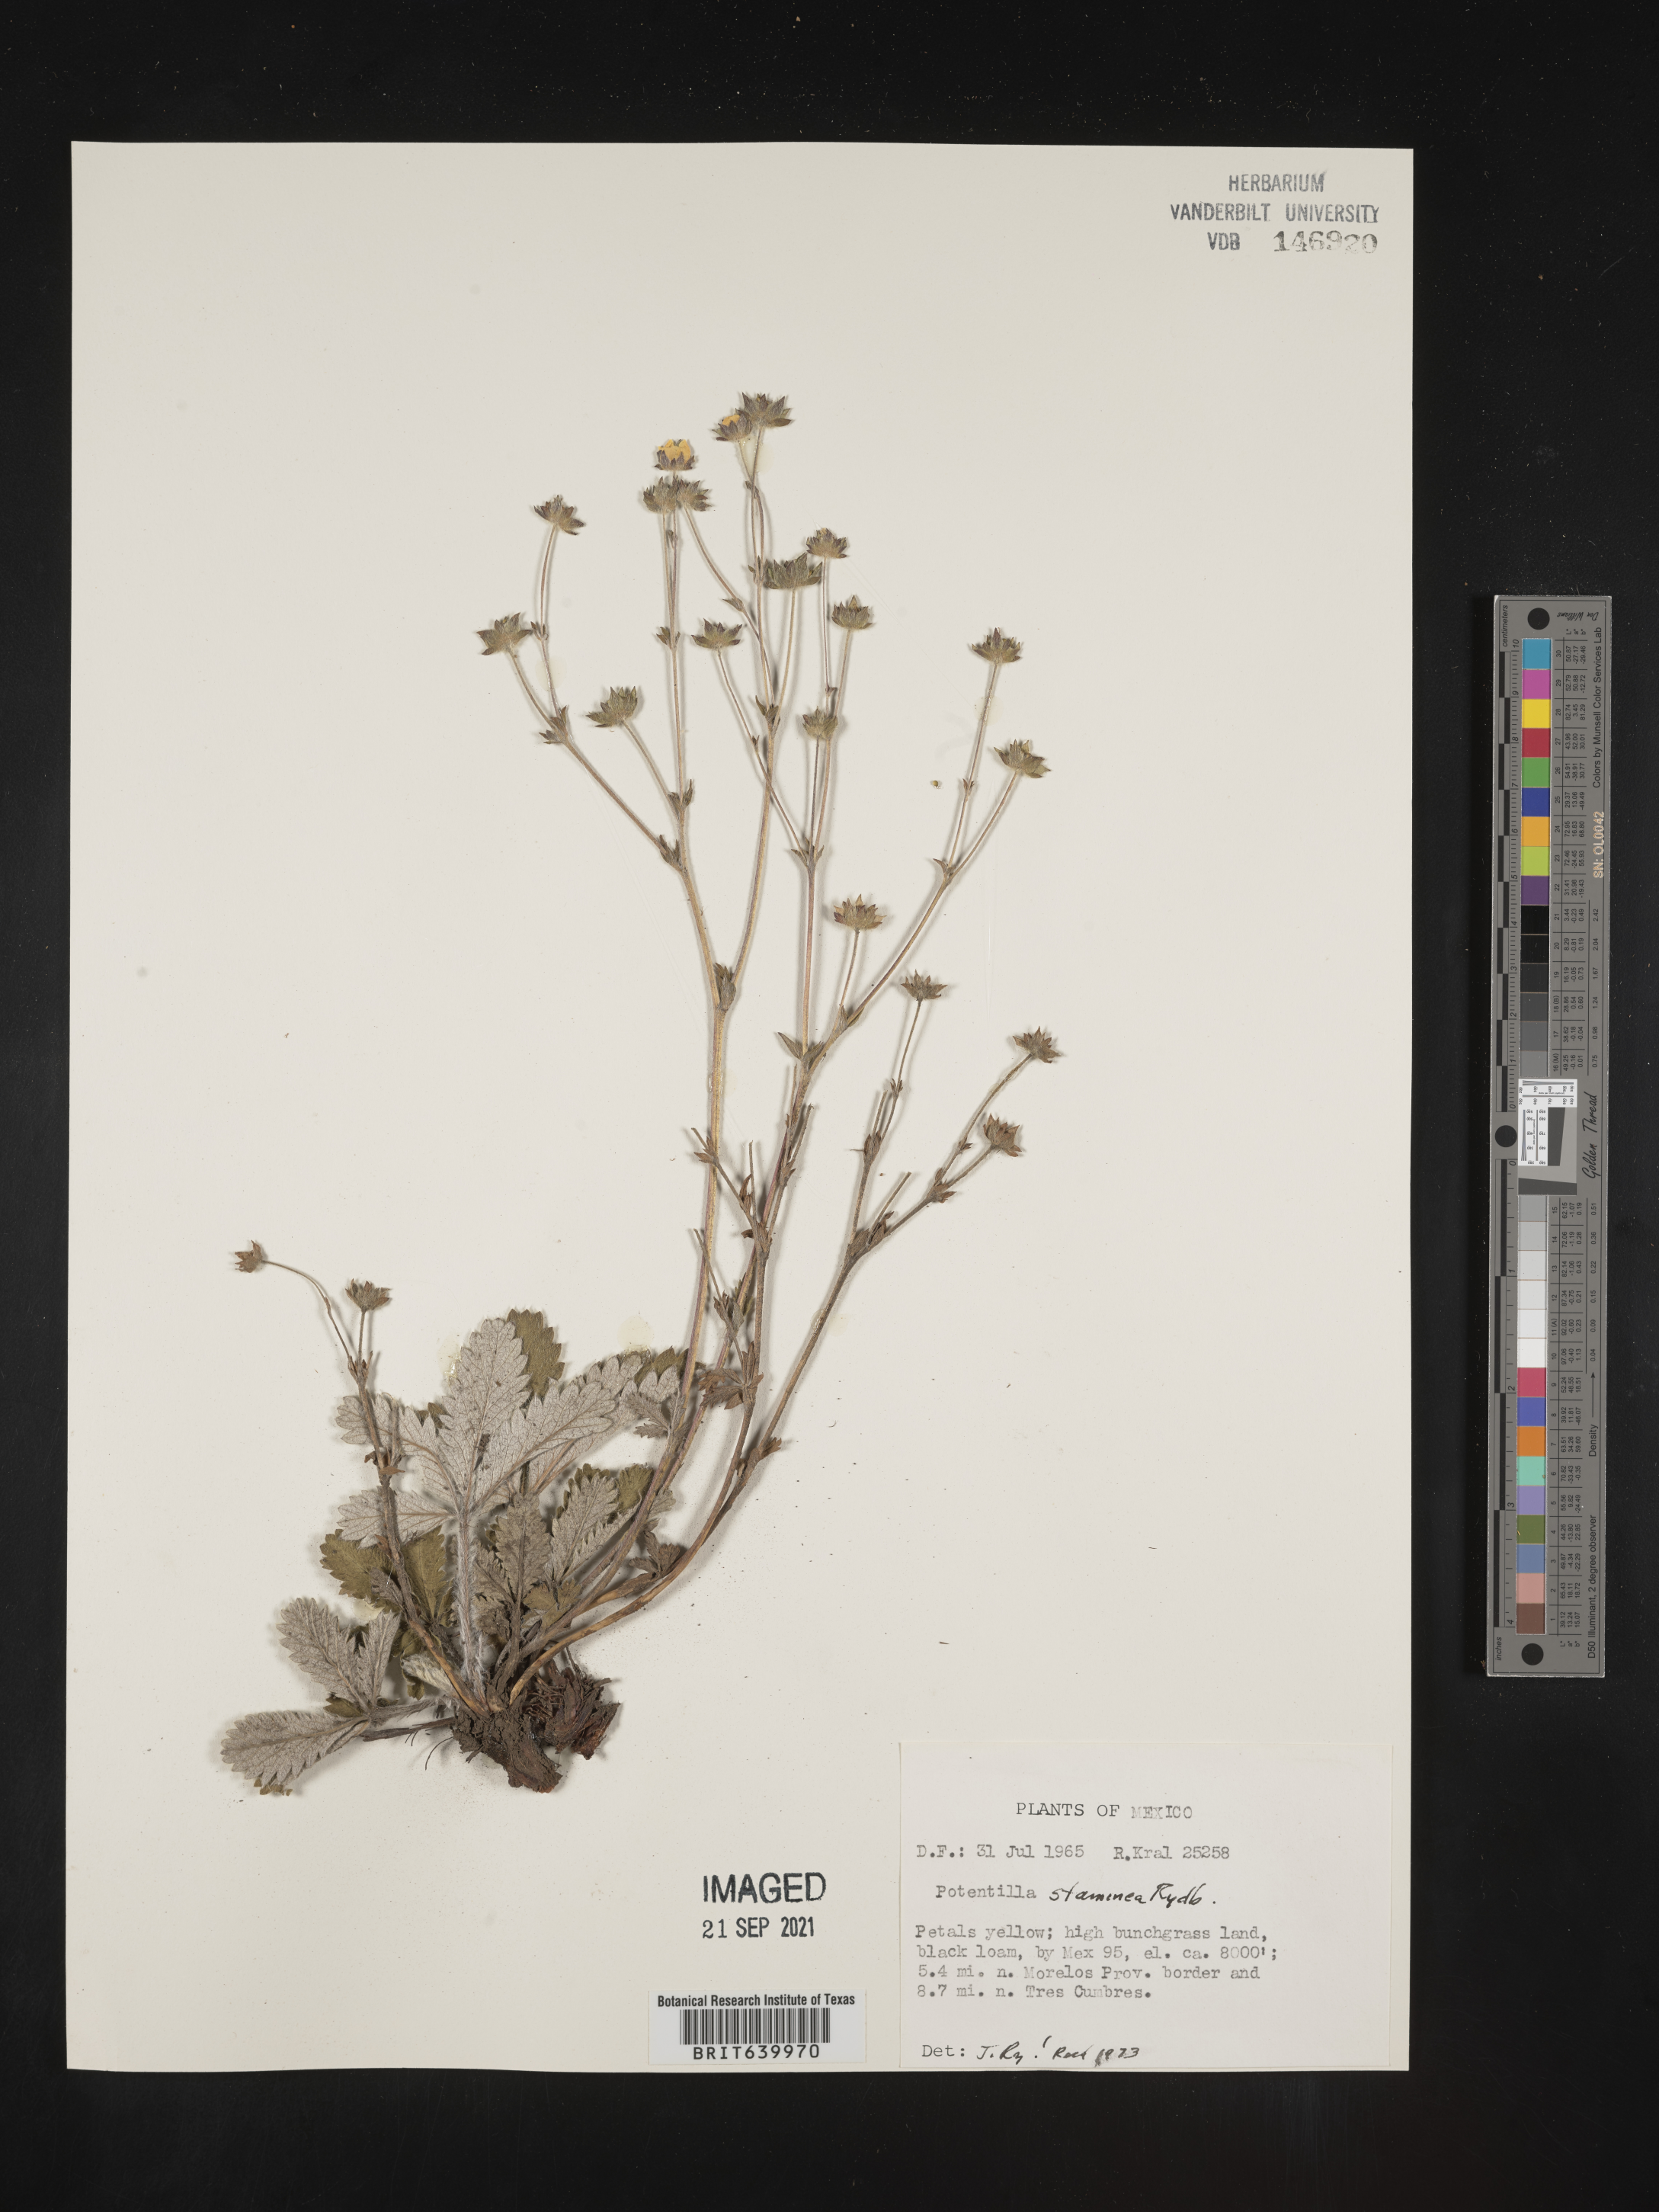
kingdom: Plantae
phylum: Tracheophyta
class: Magnoliopsida
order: Rosales
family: Rosaceae
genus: Potentilla
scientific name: Potentilla
